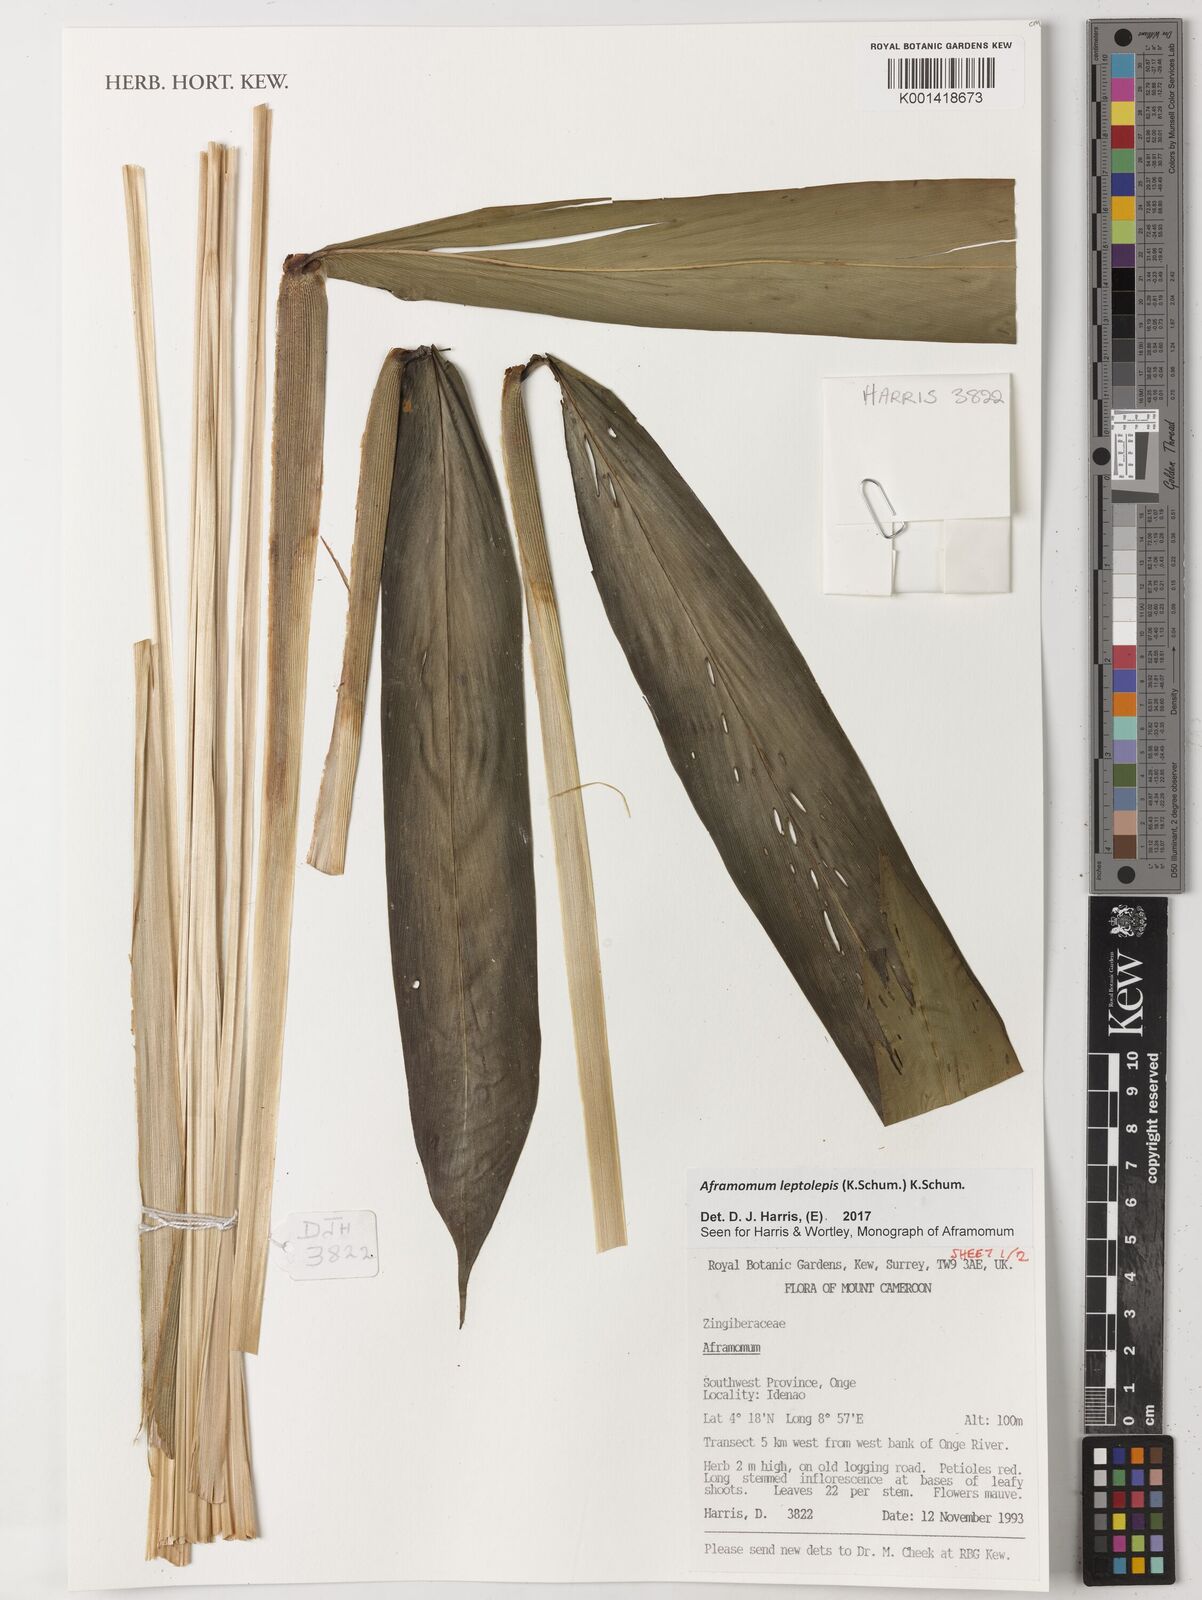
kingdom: Plantae
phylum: Tracheophyta
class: Liliopsida
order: Zingiberales
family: Zingiberaceae
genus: Aframomum
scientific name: Aframomum leptolepis
